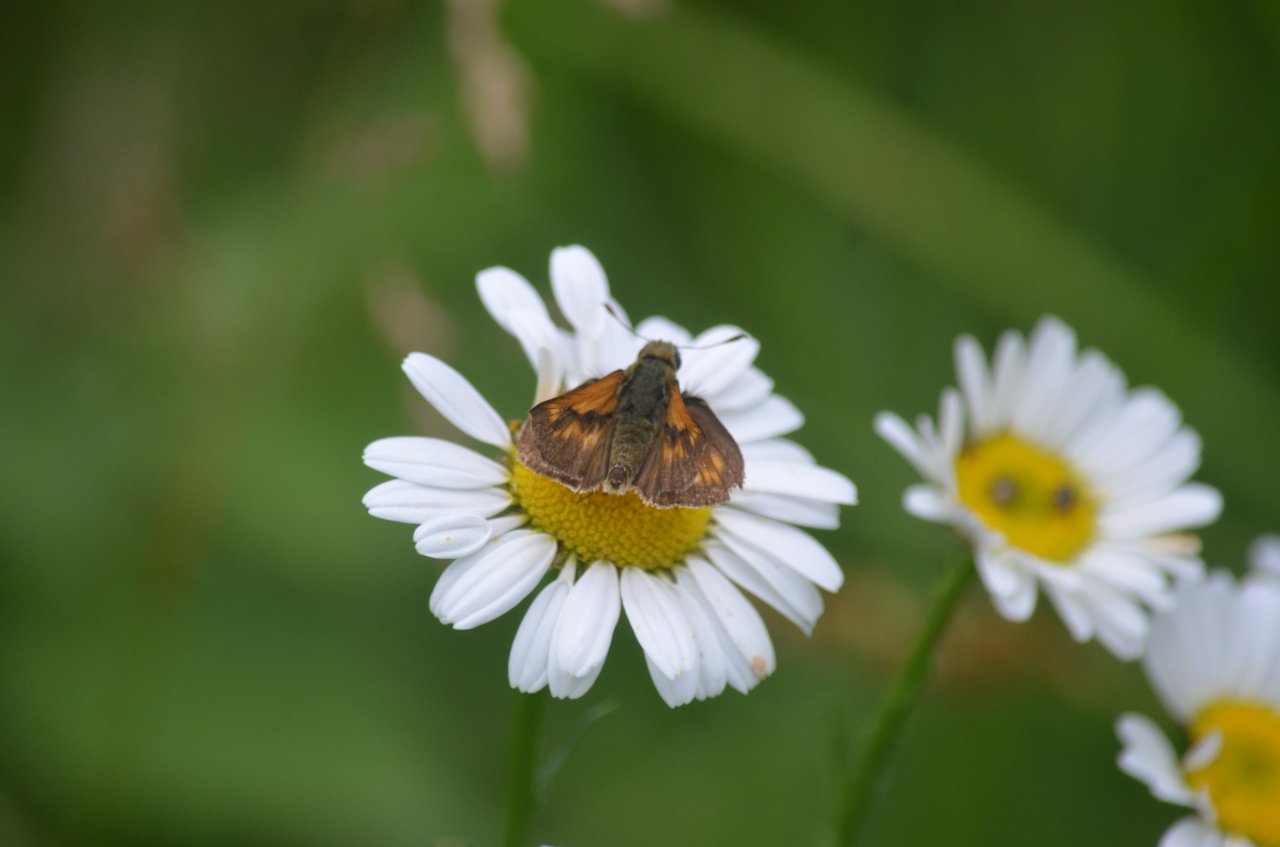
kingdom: Animalia
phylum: Arthropoda
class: Insecta
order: Lepidoptera
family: Hesperiidae
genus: Polites
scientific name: Polites
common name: Long Dash Skipper
